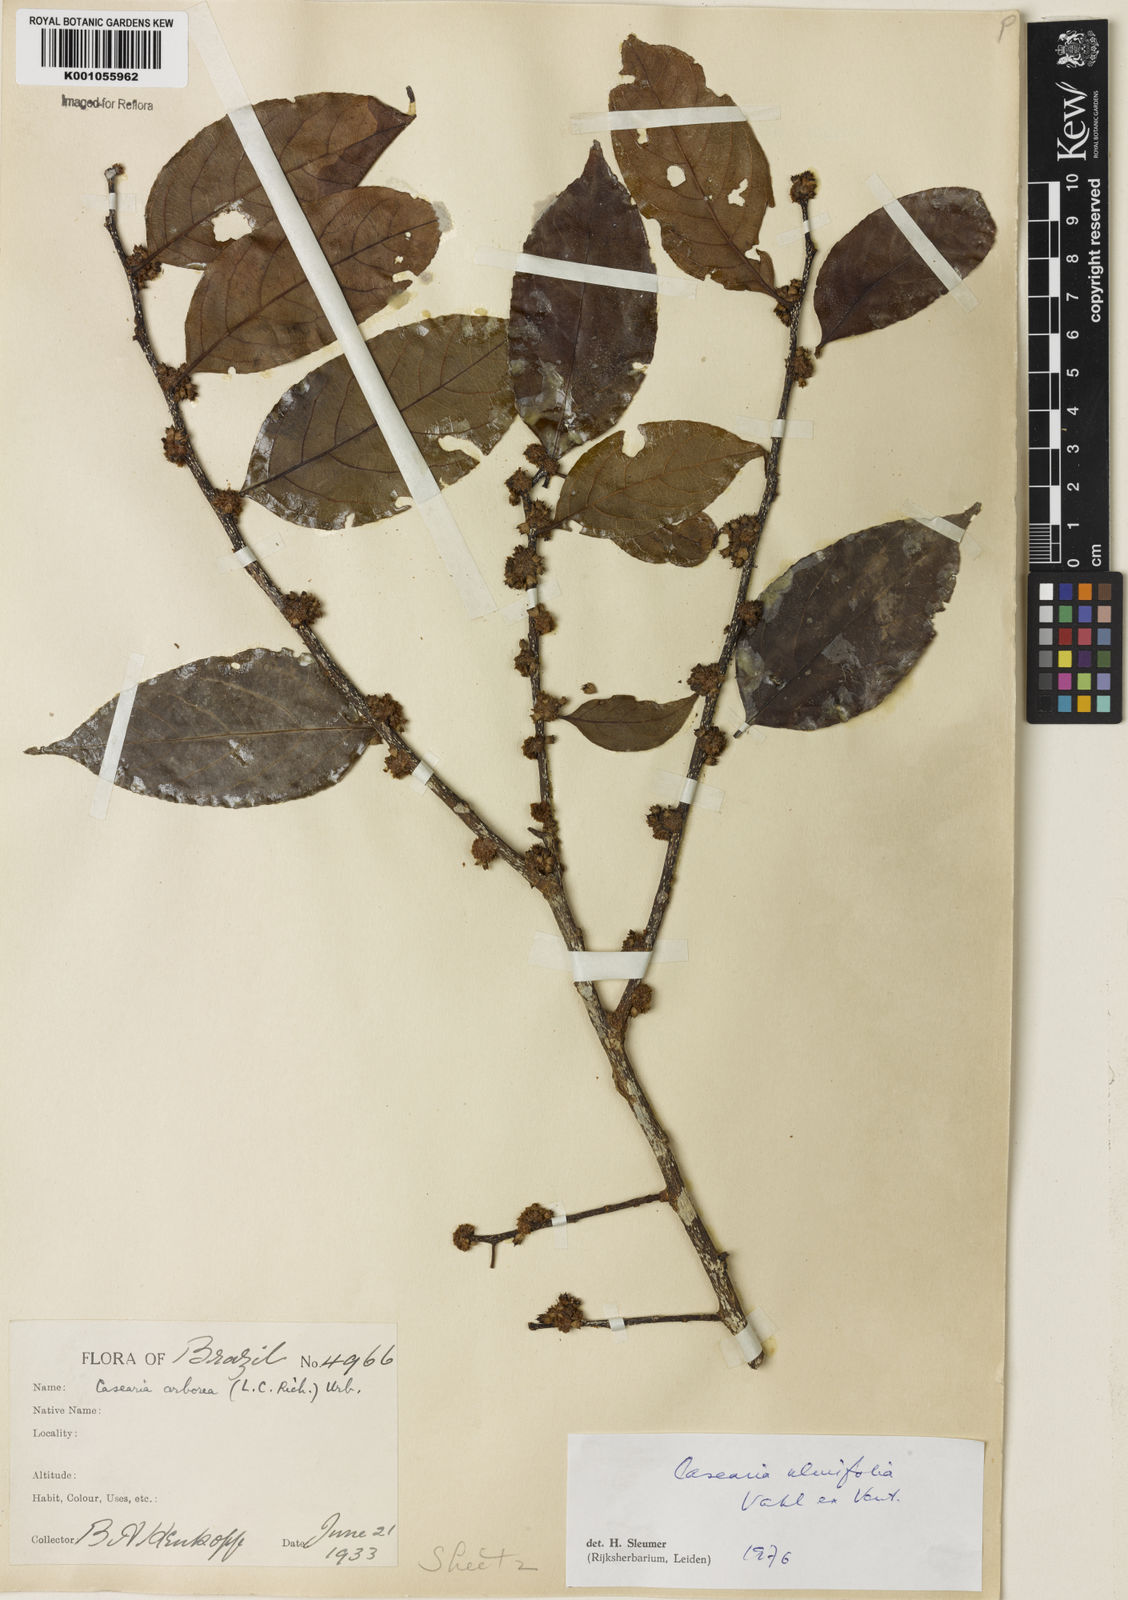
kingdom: Plantae
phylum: Tracheophyta
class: Magnoliopsida
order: Malpighiales
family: Salicaceae
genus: Casearia
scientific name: Casearia ulmifolia
